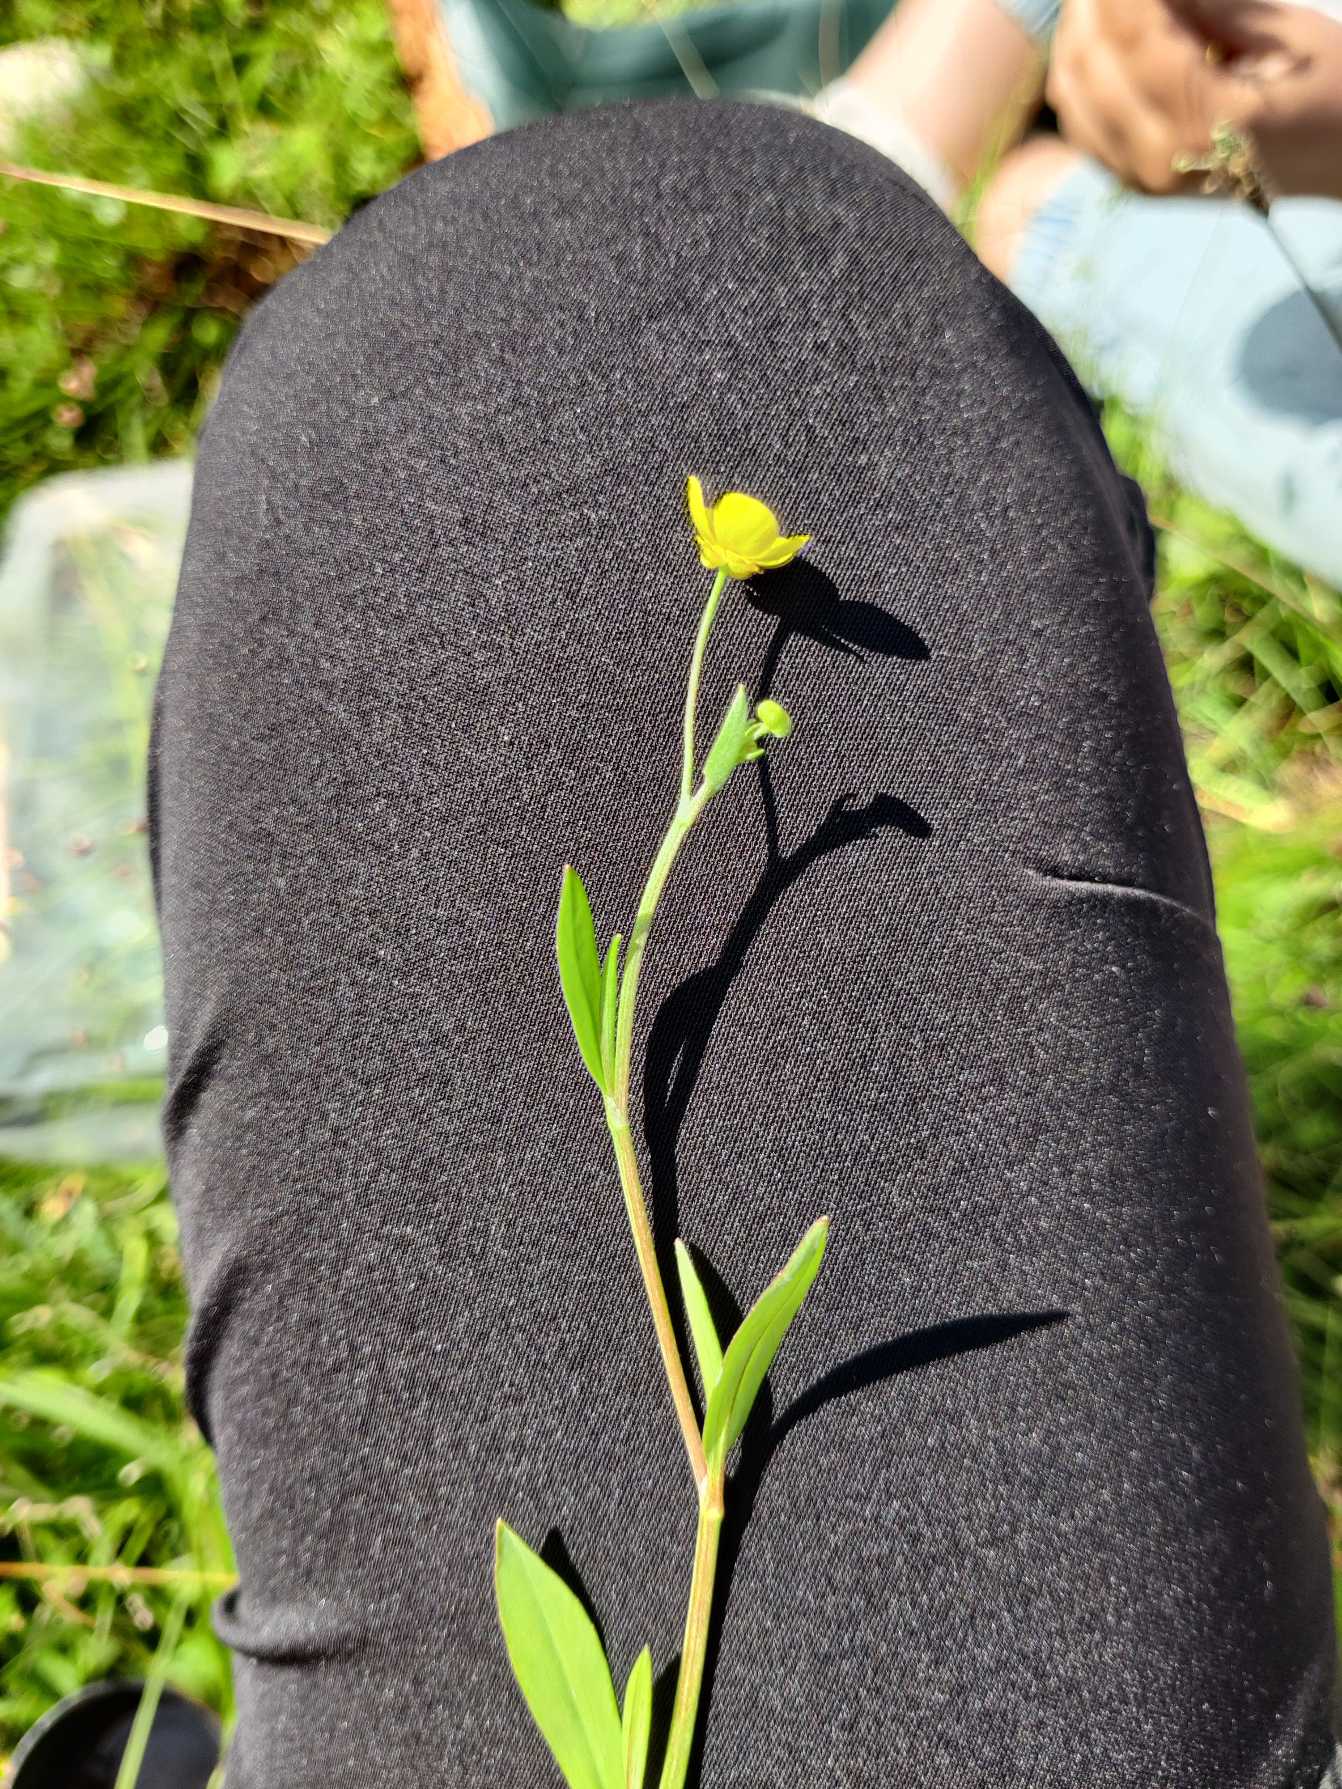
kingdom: Plantae
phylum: Tracheophyta
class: Magnoliopsida
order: Ranunculales
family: Ranunculaceae
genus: Ranunculus
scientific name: Ranunculus flammula
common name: Kær-ranunkel
